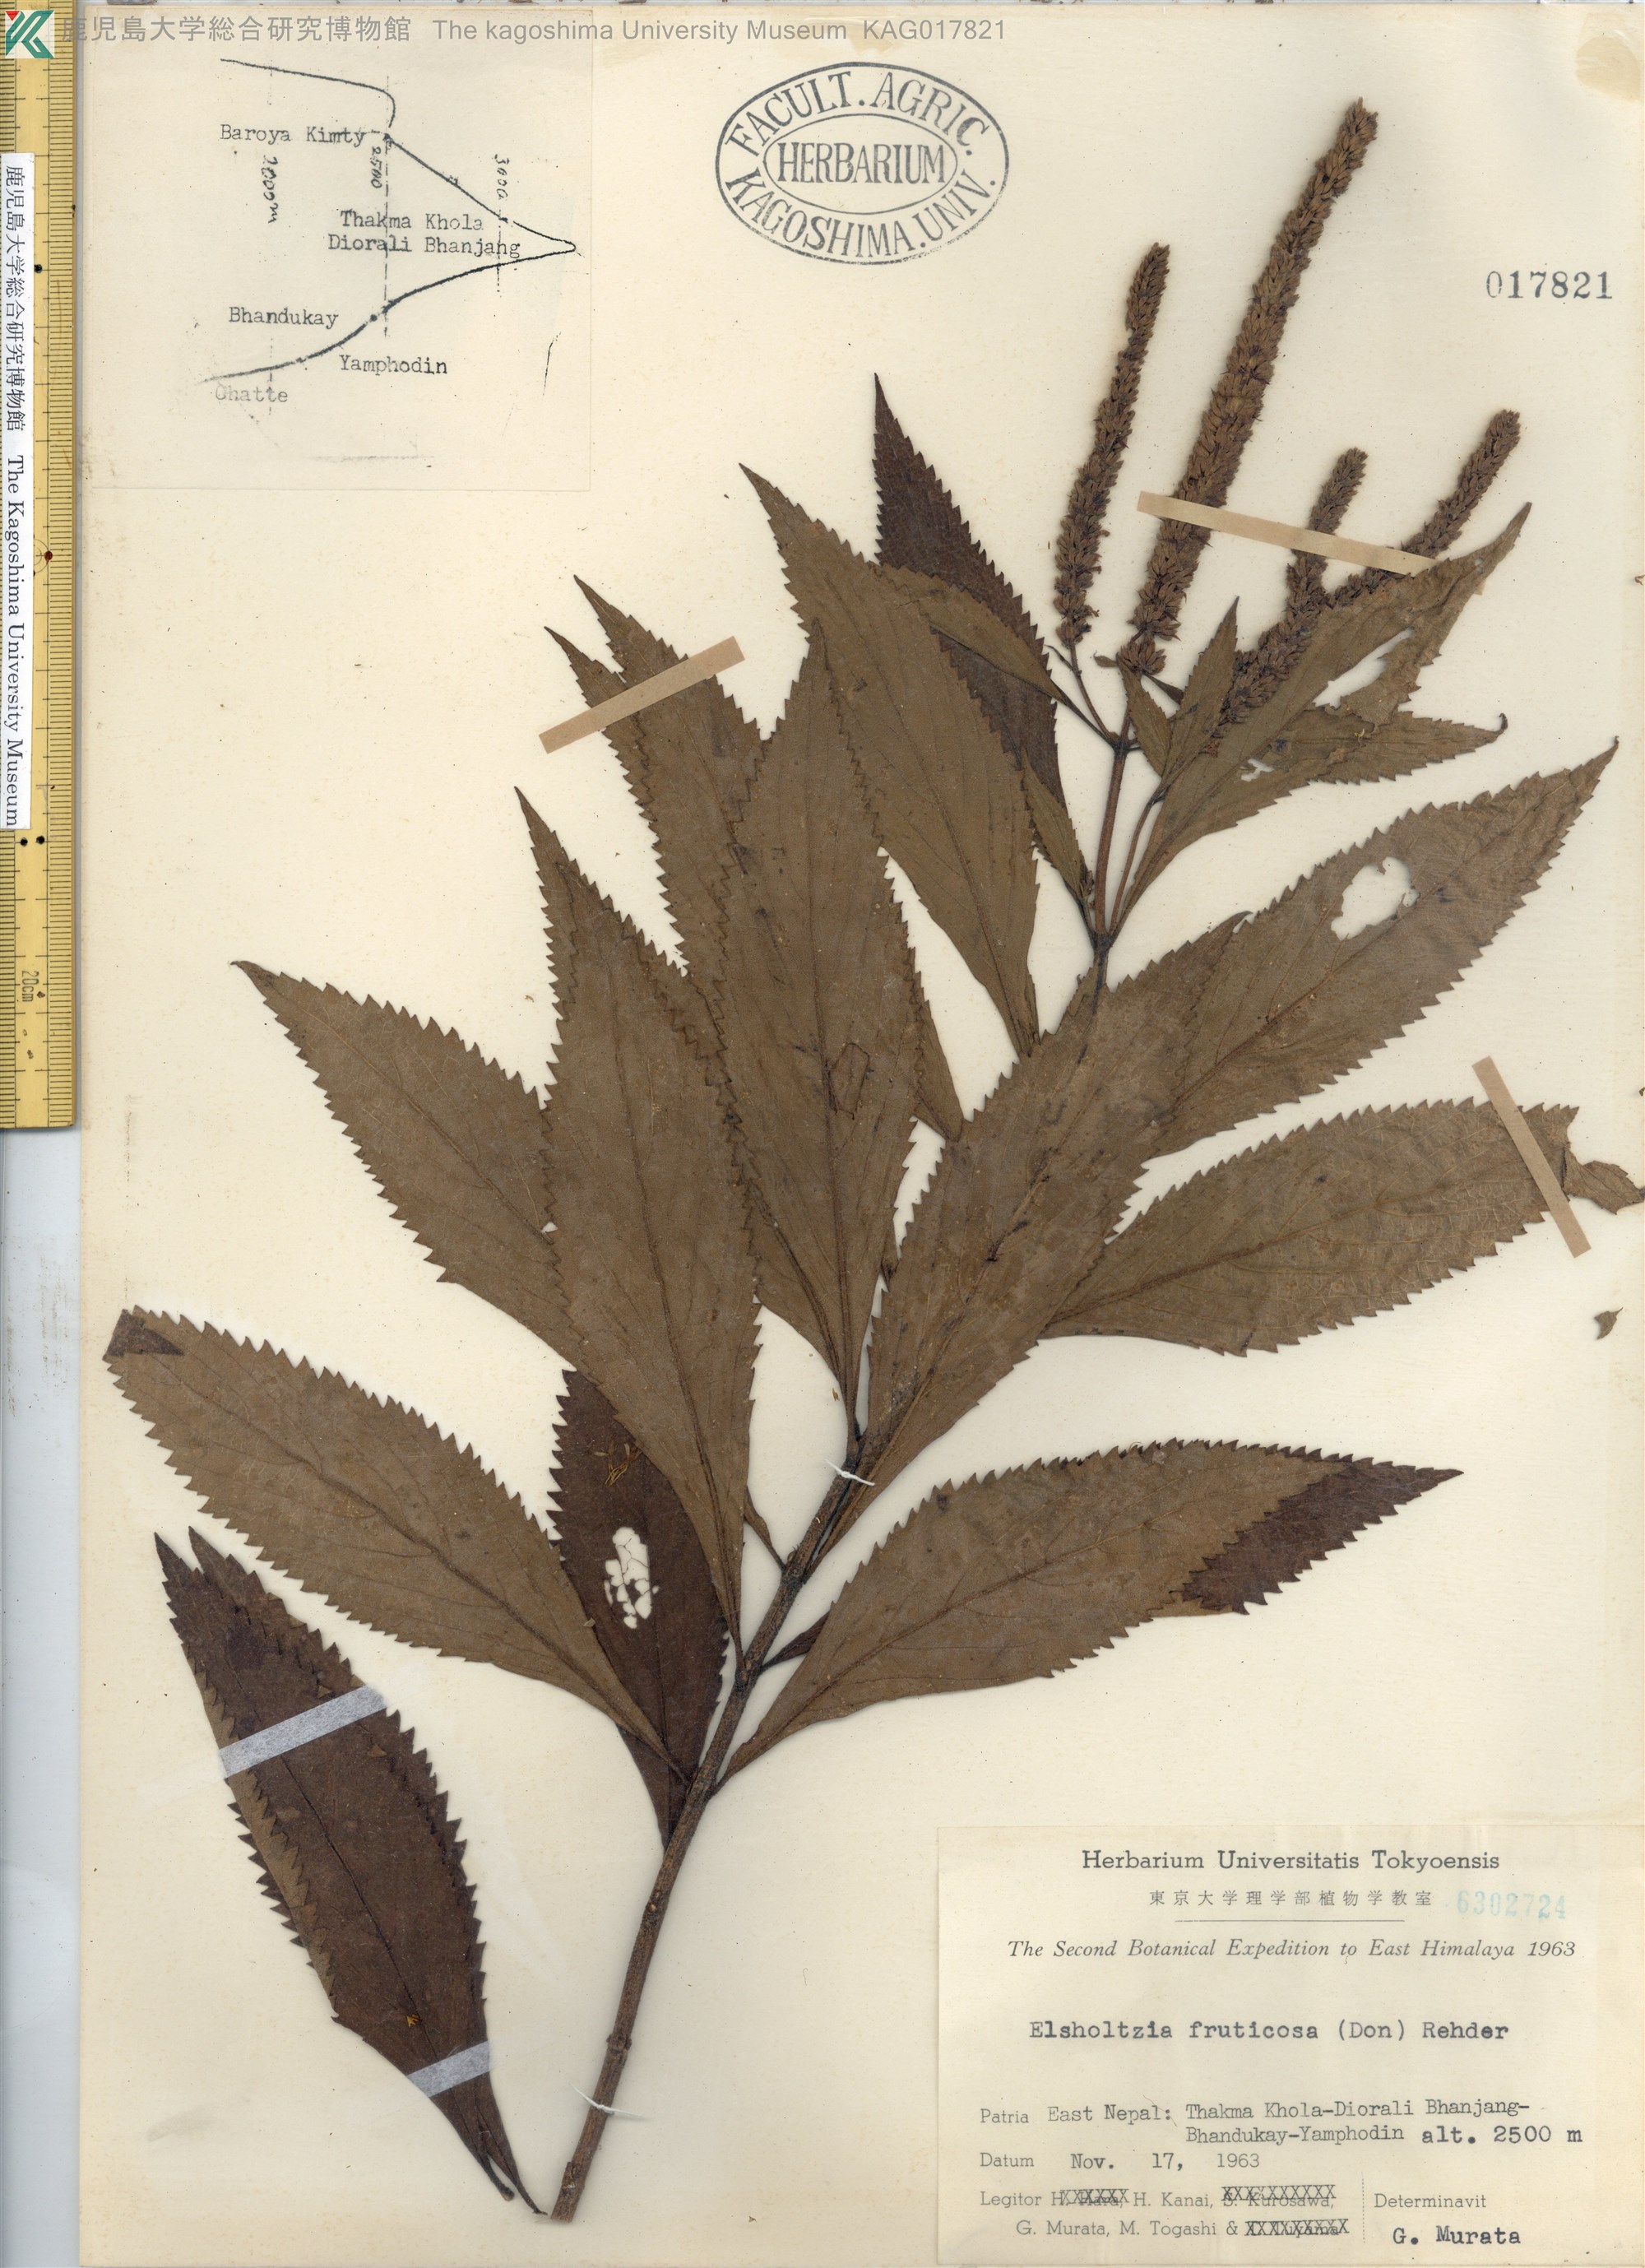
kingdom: Plantae
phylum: Tracheophyta
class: Magnoliopsida
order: Lamiales
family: Lamiaceae
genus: Elsholtzia
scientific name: Elsholtzia fruticosa
